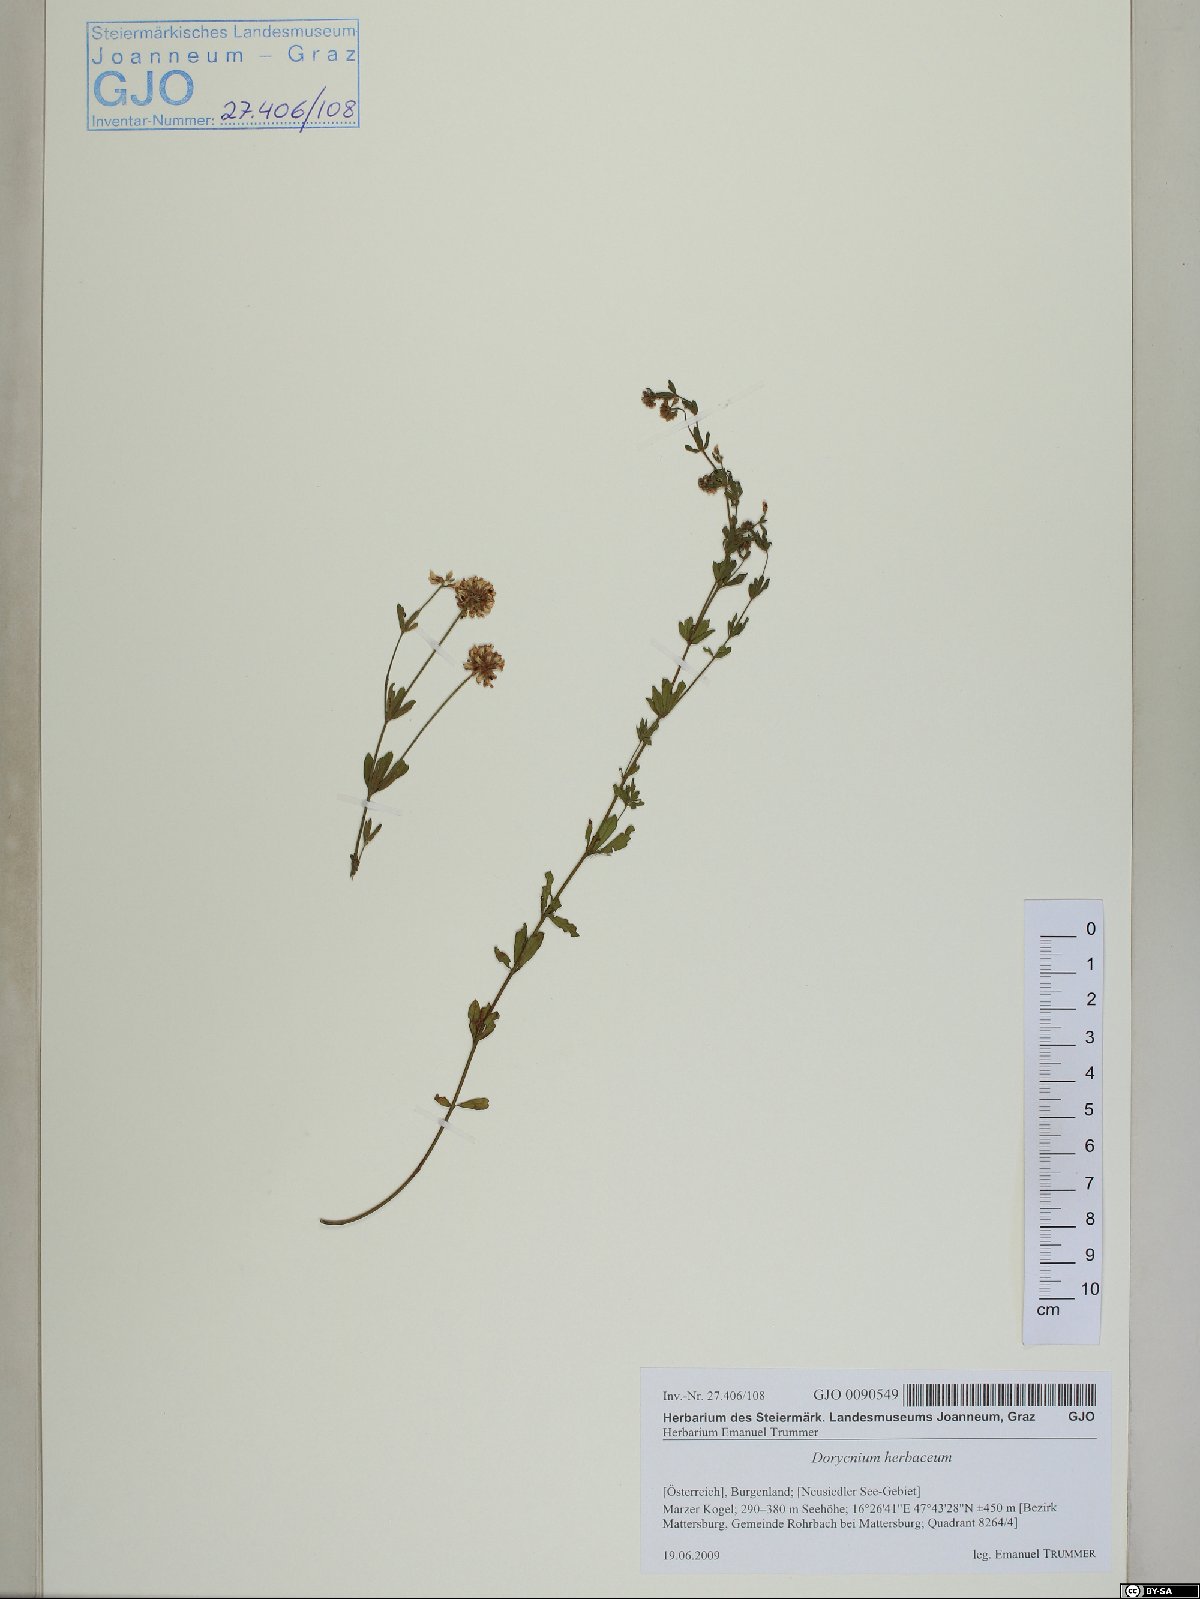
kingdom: Plantae
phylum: Tracheophyta
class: Magnoliopsida
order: Fabales
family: Fabaceae
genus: Lotus
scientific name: Lotus herbaceus
